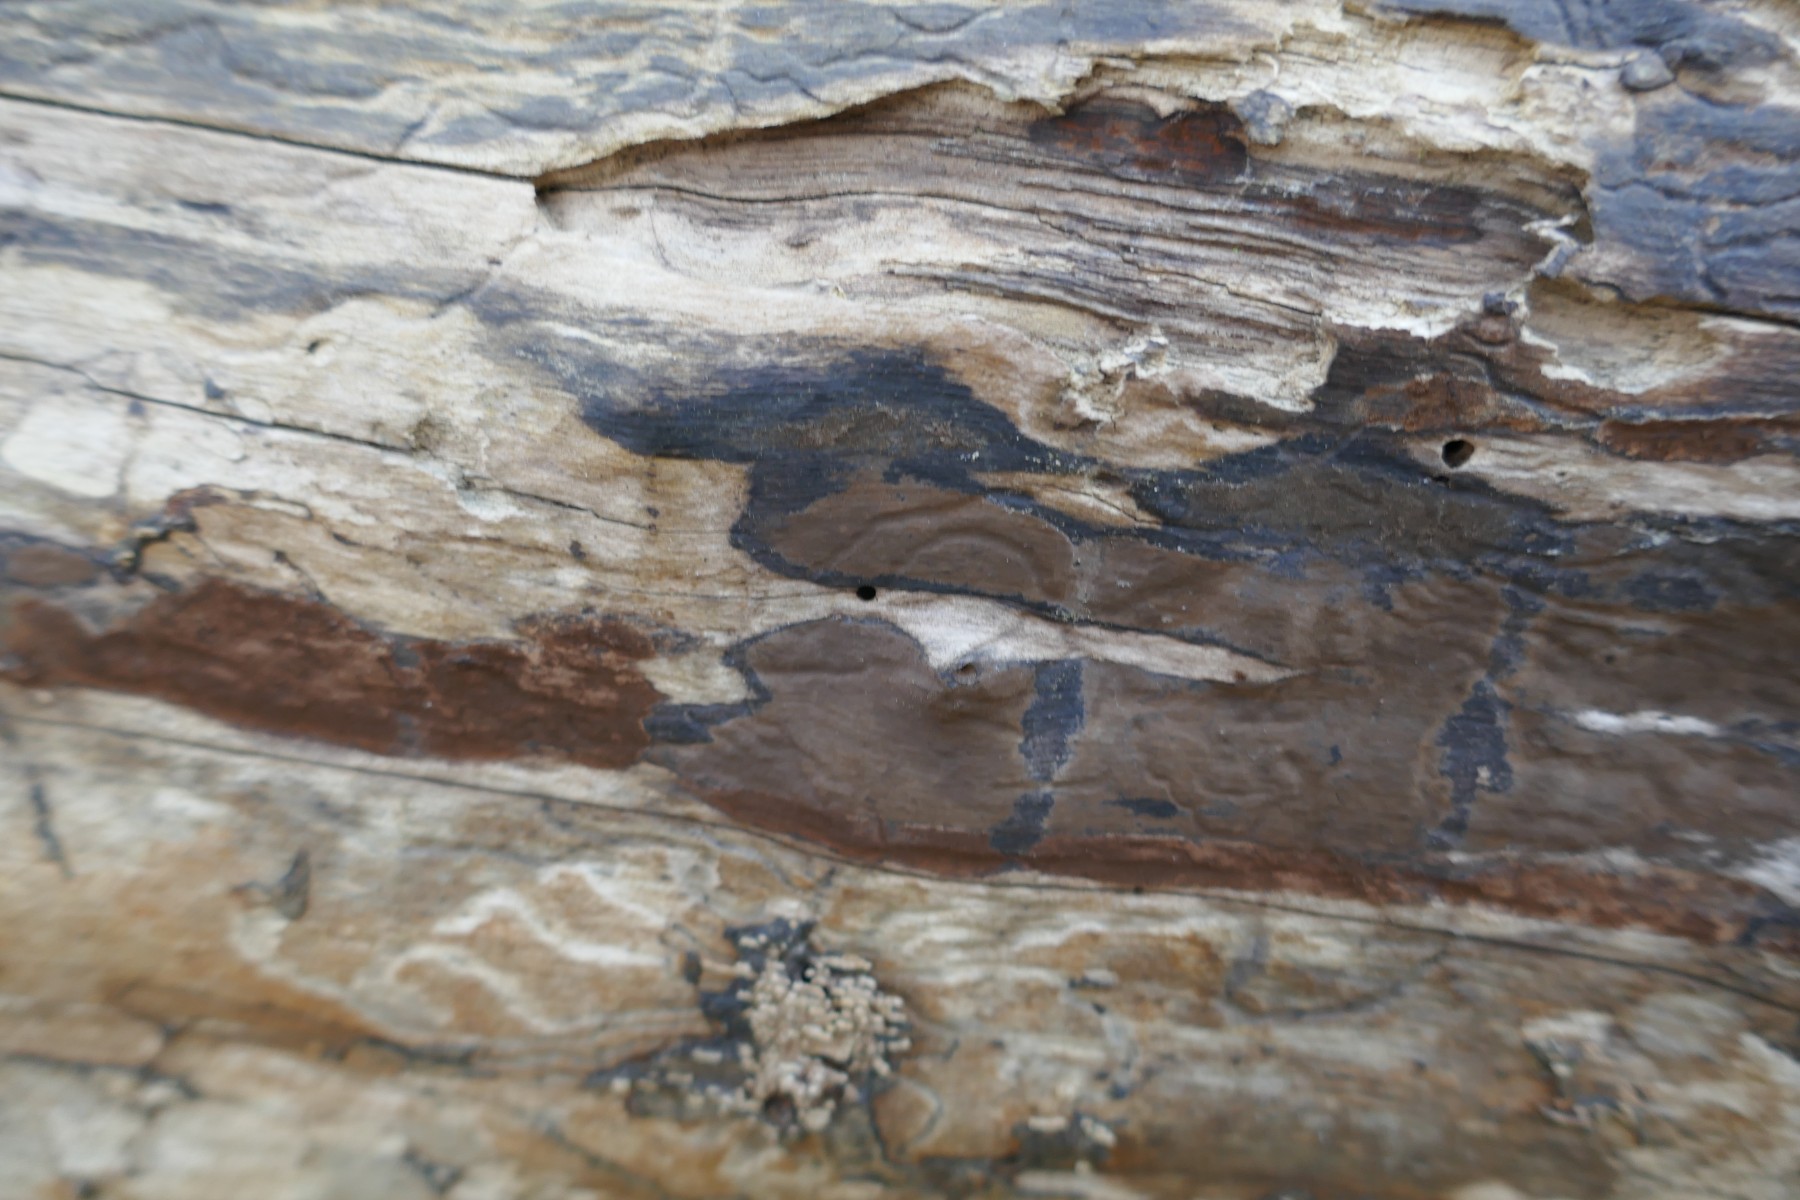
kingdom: Fungi
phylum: Ascomycota
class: Sordariomycetes
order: Xylariales
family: Hypoxylaceae
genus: Hypoxylon
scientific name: Hypoxylon
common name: kulbær
